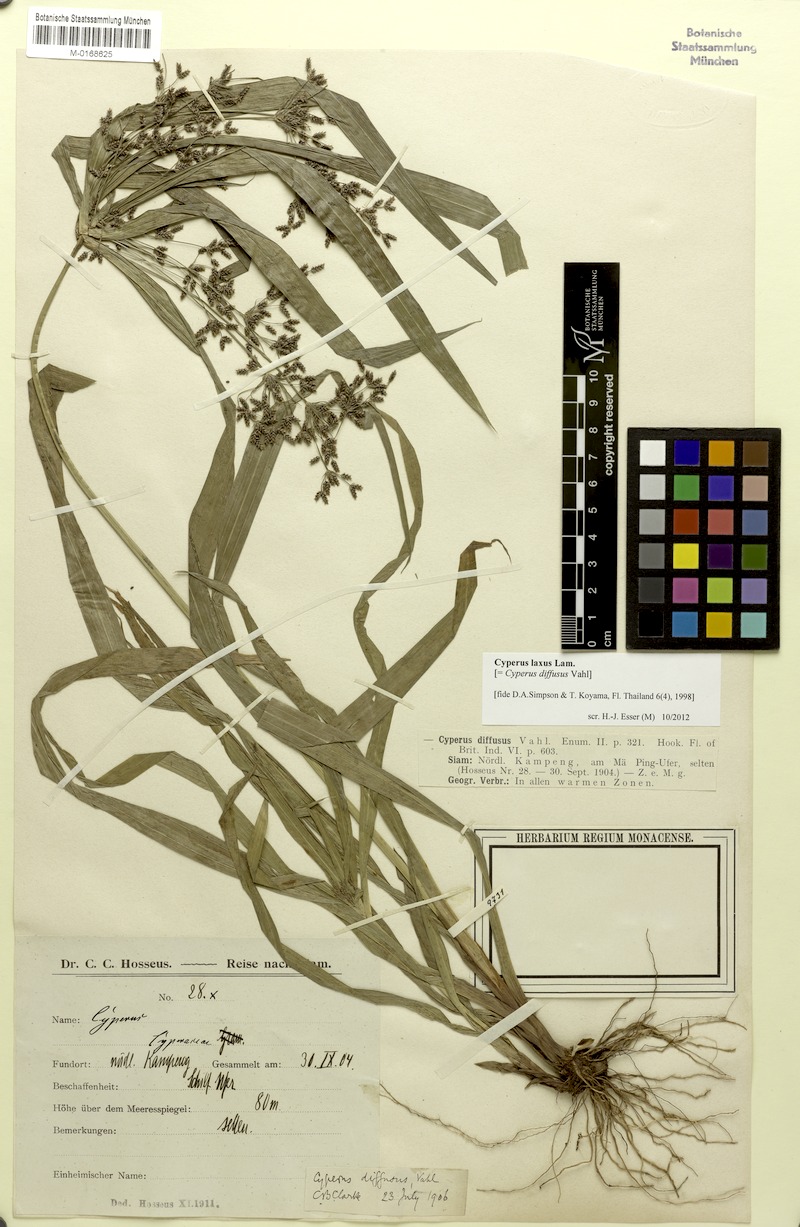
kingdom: Plantae
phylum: Tracheophyta
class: Liliopsida
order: Poales
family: Cyperaceae
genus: Cyperus
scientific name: Cyperus laxus
